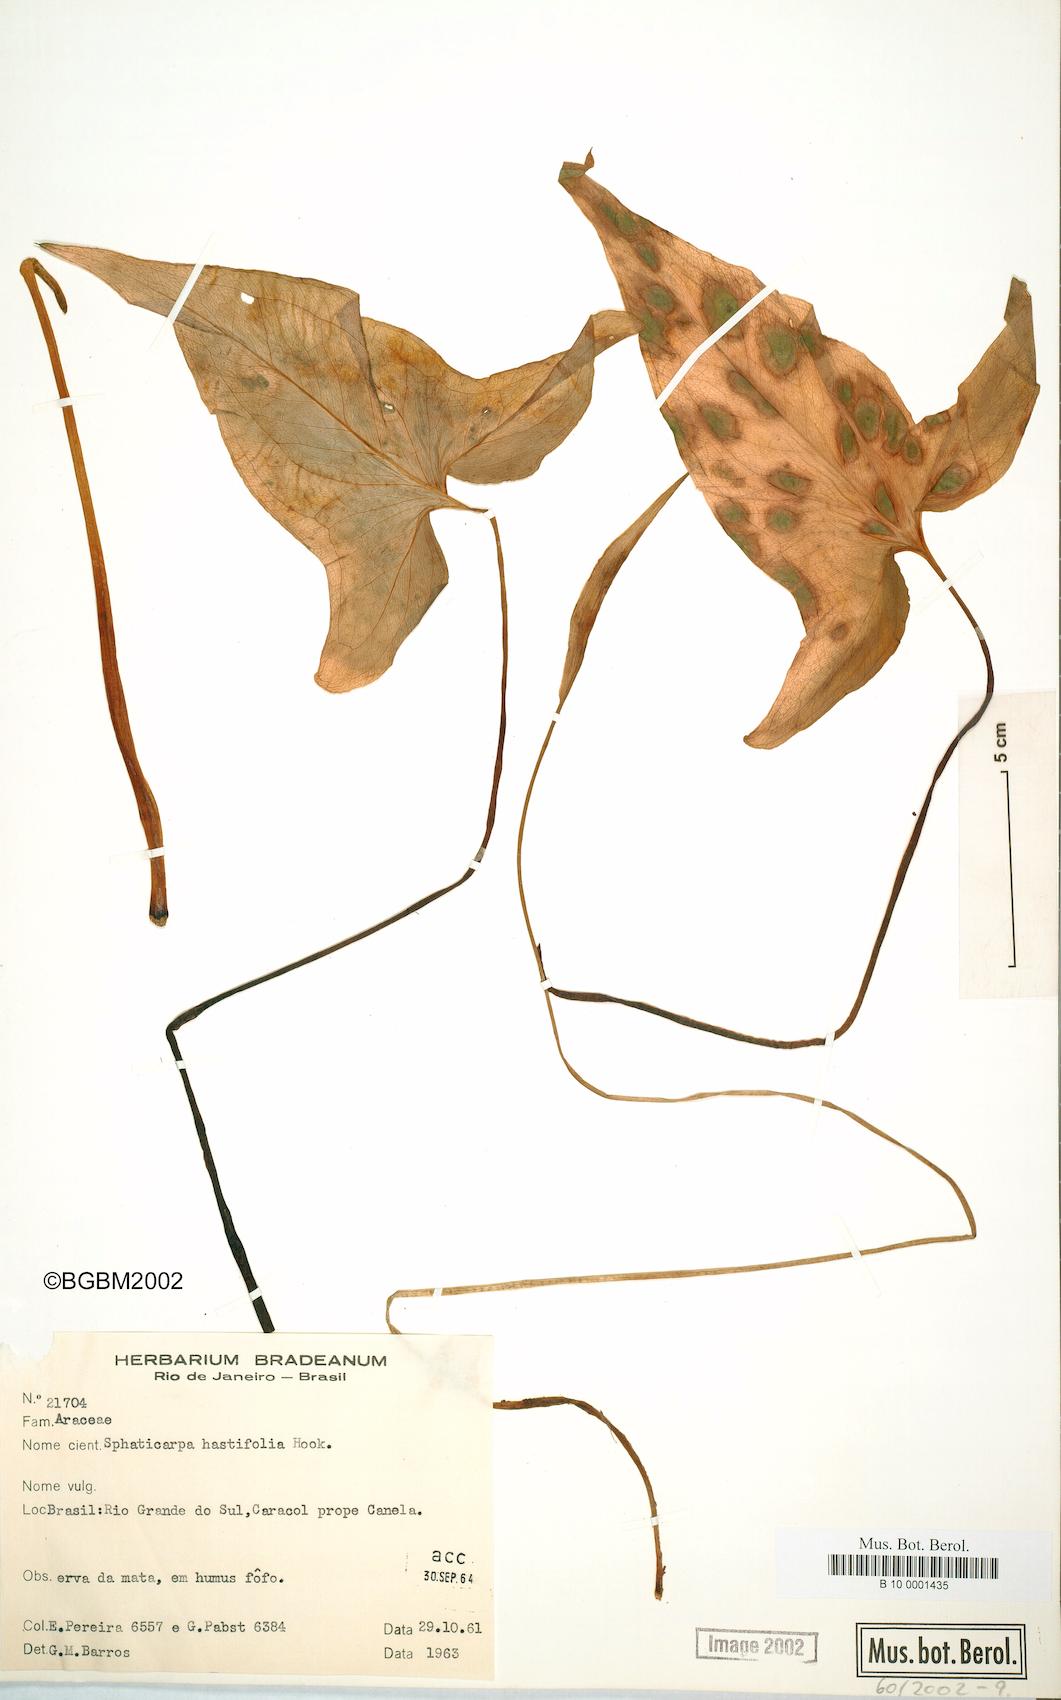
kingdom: Plantae
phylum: Tracheophyta
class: Liliopsida
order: Alismatales
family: Araceae
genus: Spathicarpa
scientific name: Spathicarpa hastifolia
